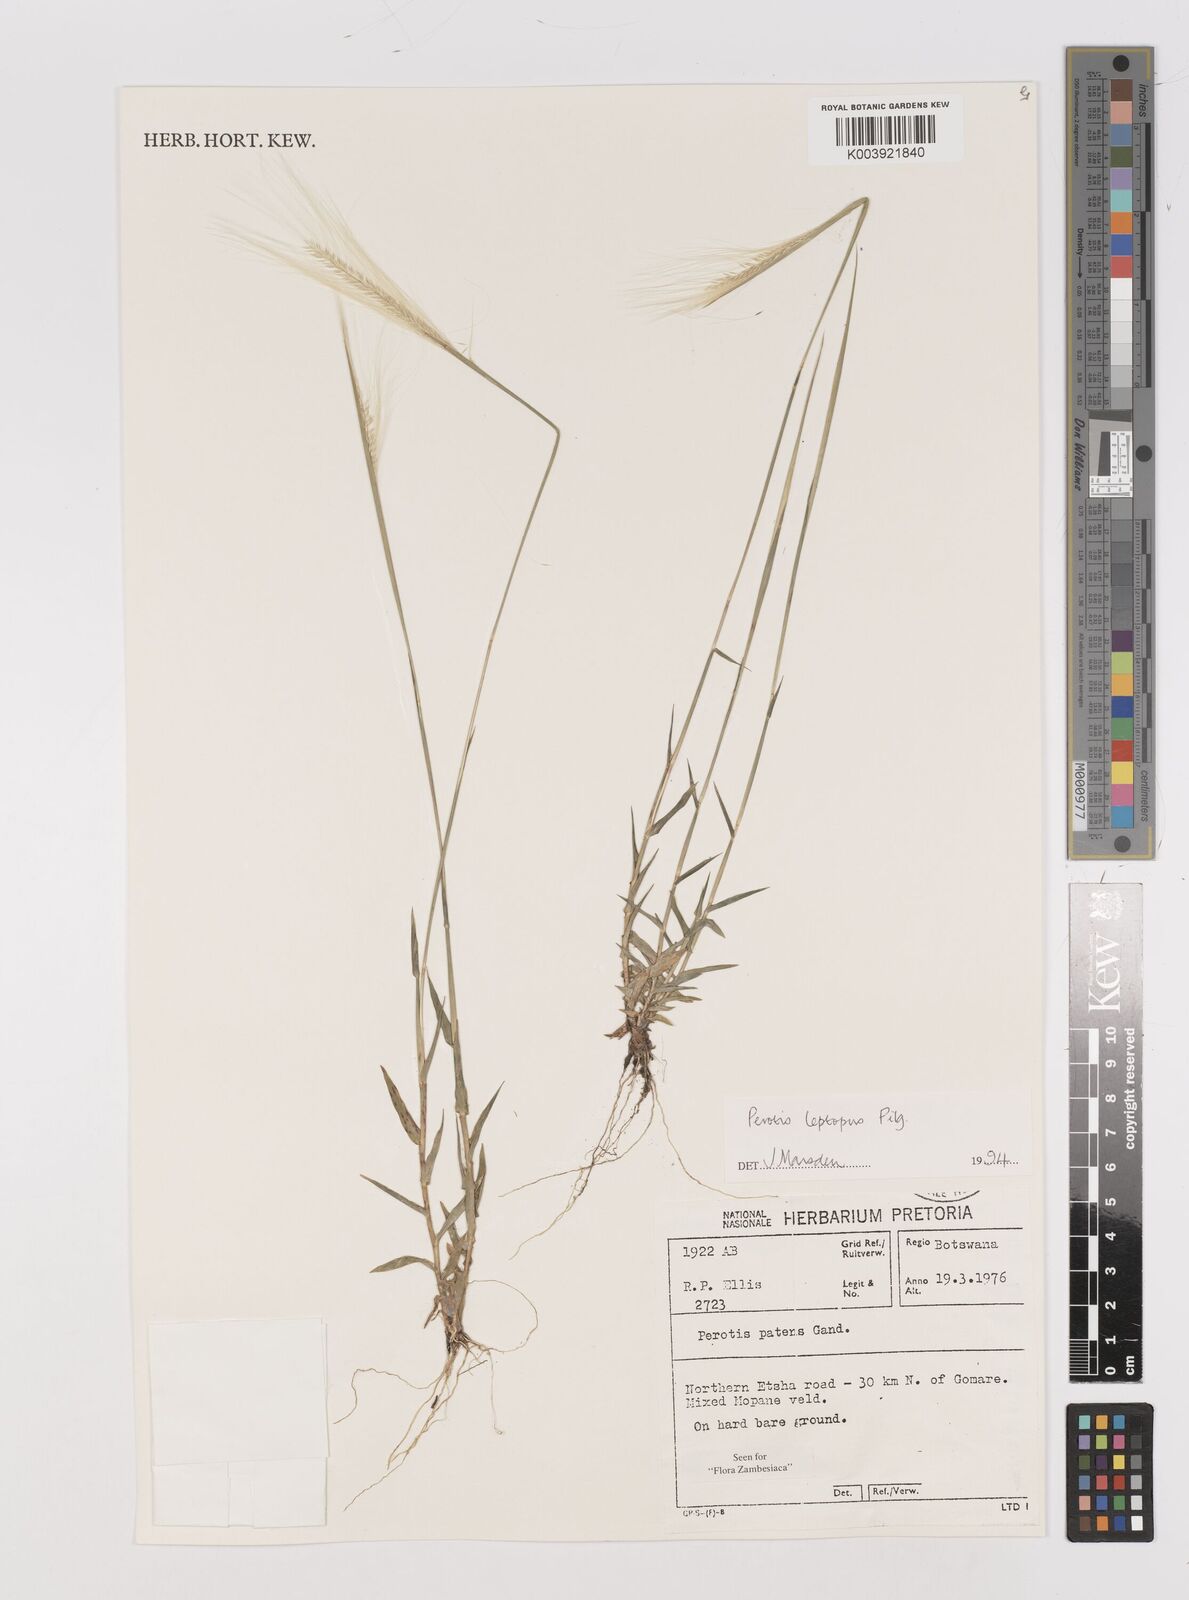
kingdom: Plantae
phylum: Tracheophyta
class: Liliopsida
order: Poales
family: Poaceae
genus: Perotis
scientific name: Perotis leptopus
